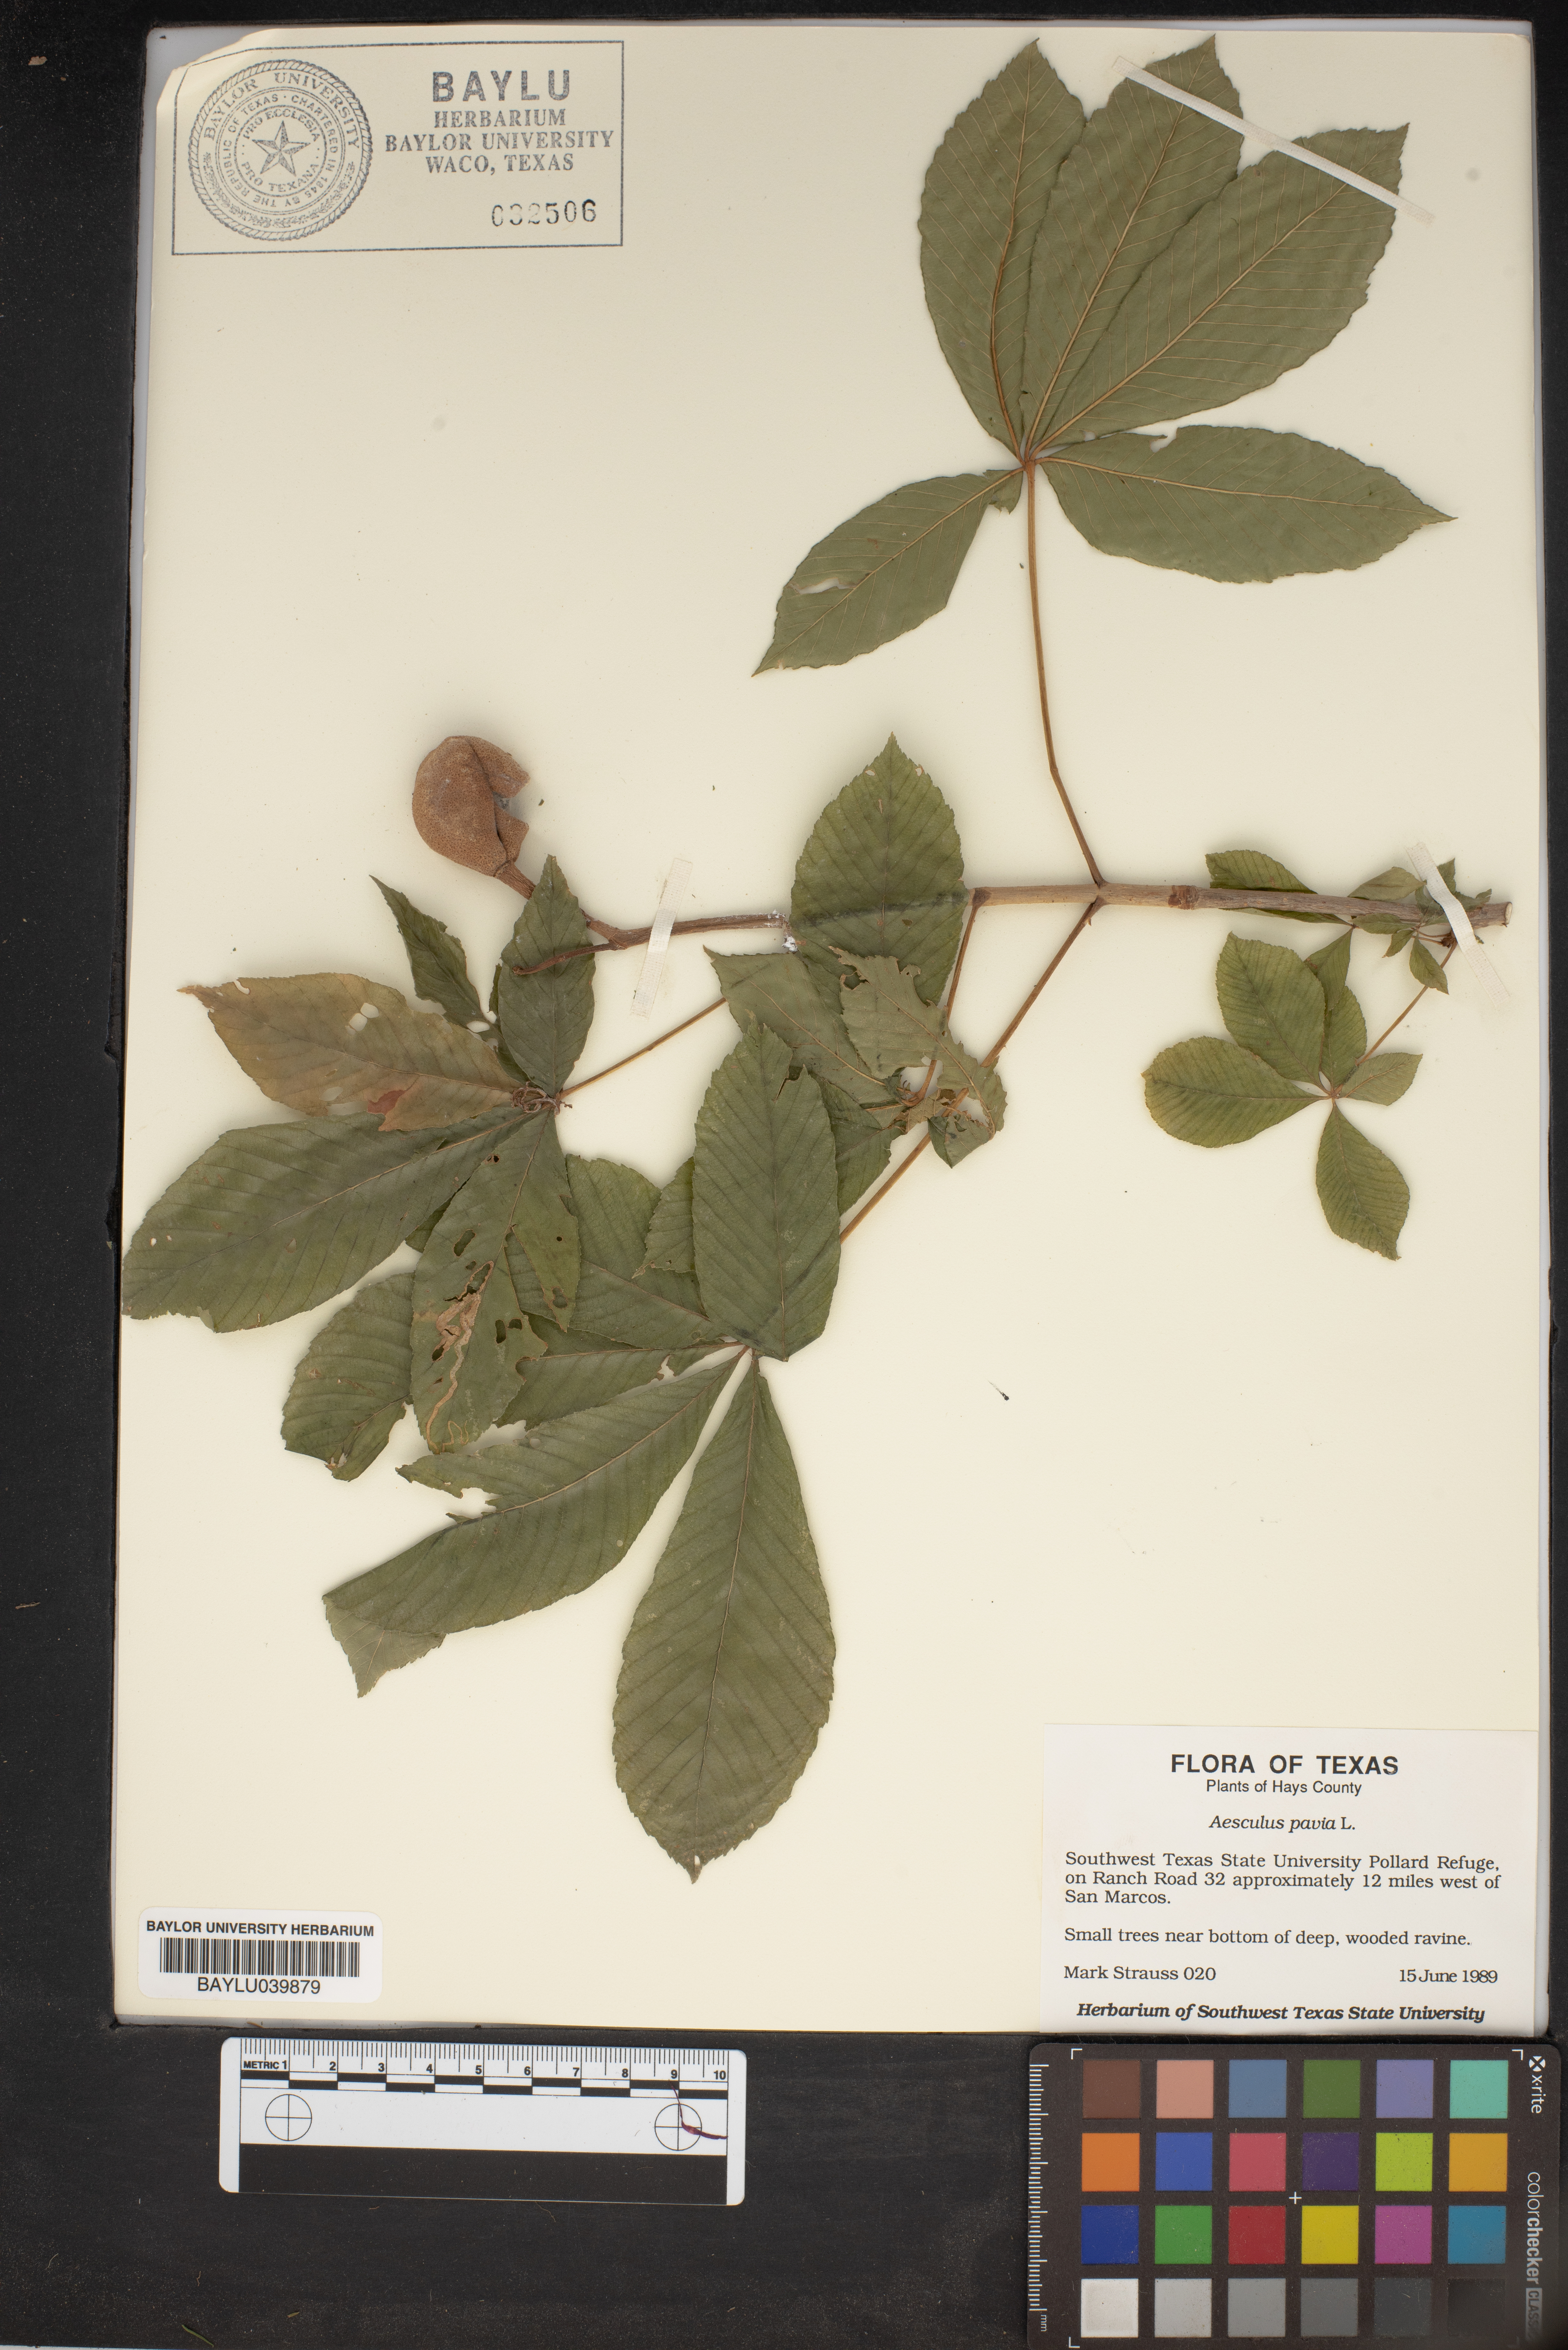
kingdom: Plantae
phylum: Tracheophyta
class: Magnoliopsida
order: Sapindales
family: Sapindaceae
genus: Aesculus
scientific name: Aesculus pavia
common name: Red buckeye
